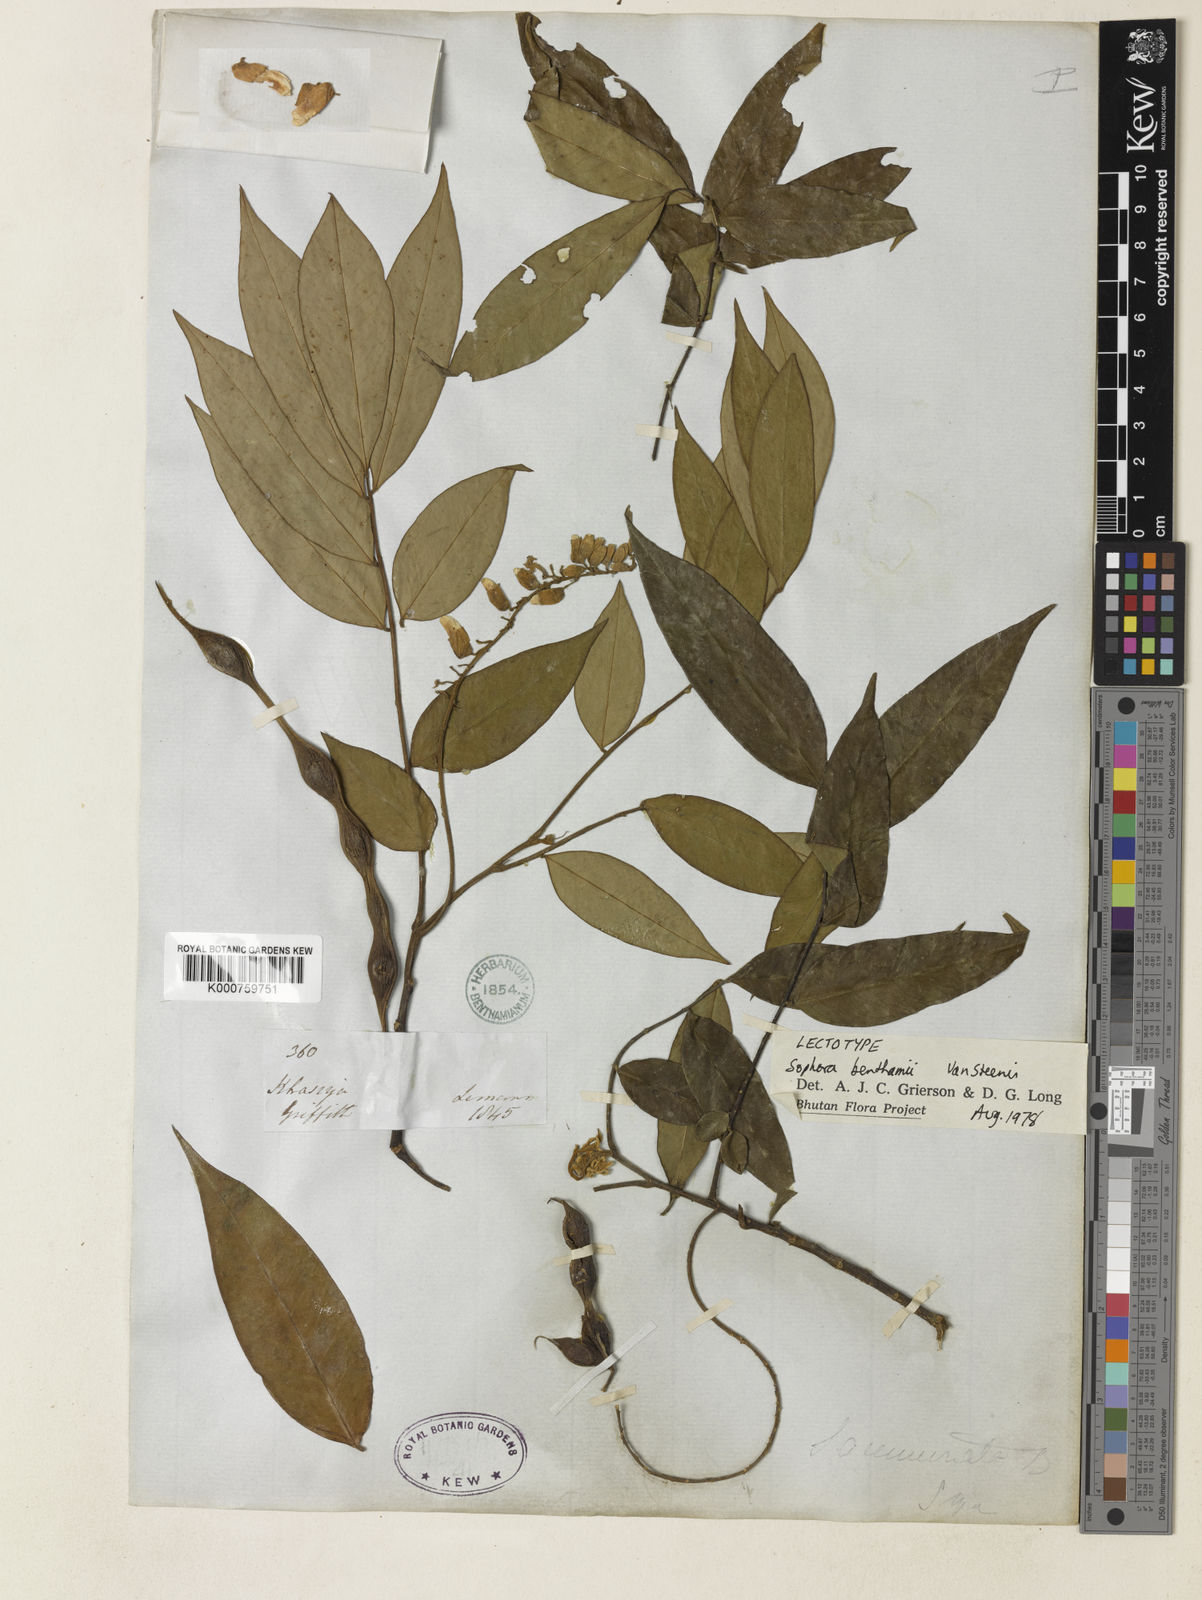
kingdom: Plantae
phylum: Tracheophyta
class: Magnoliopsida
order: Fabales
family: Fabaceae
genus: Sophora
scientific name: Sophora benthamii
